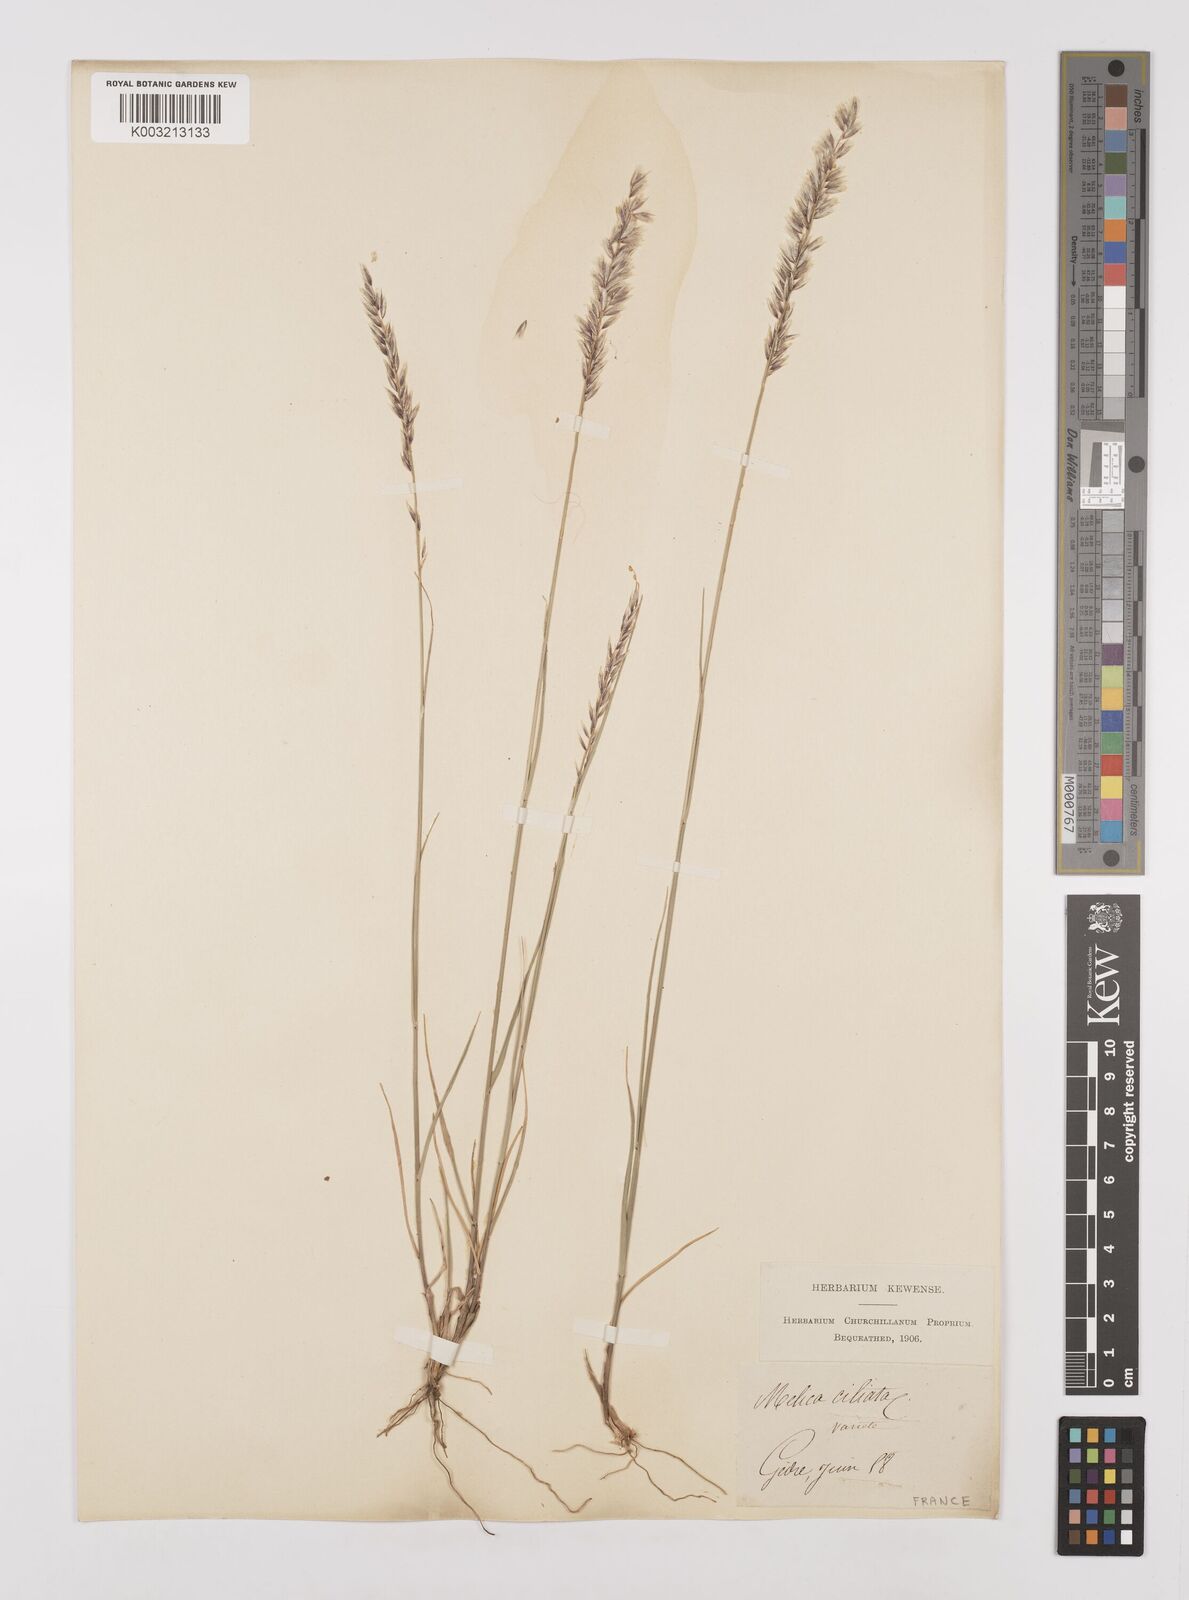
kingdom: Plantae
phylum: Tracheophyta
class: Liliopsida
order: Poales
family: Poaceae
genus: Melica
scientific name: Melica ciliata
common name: Hairy melicgrass
